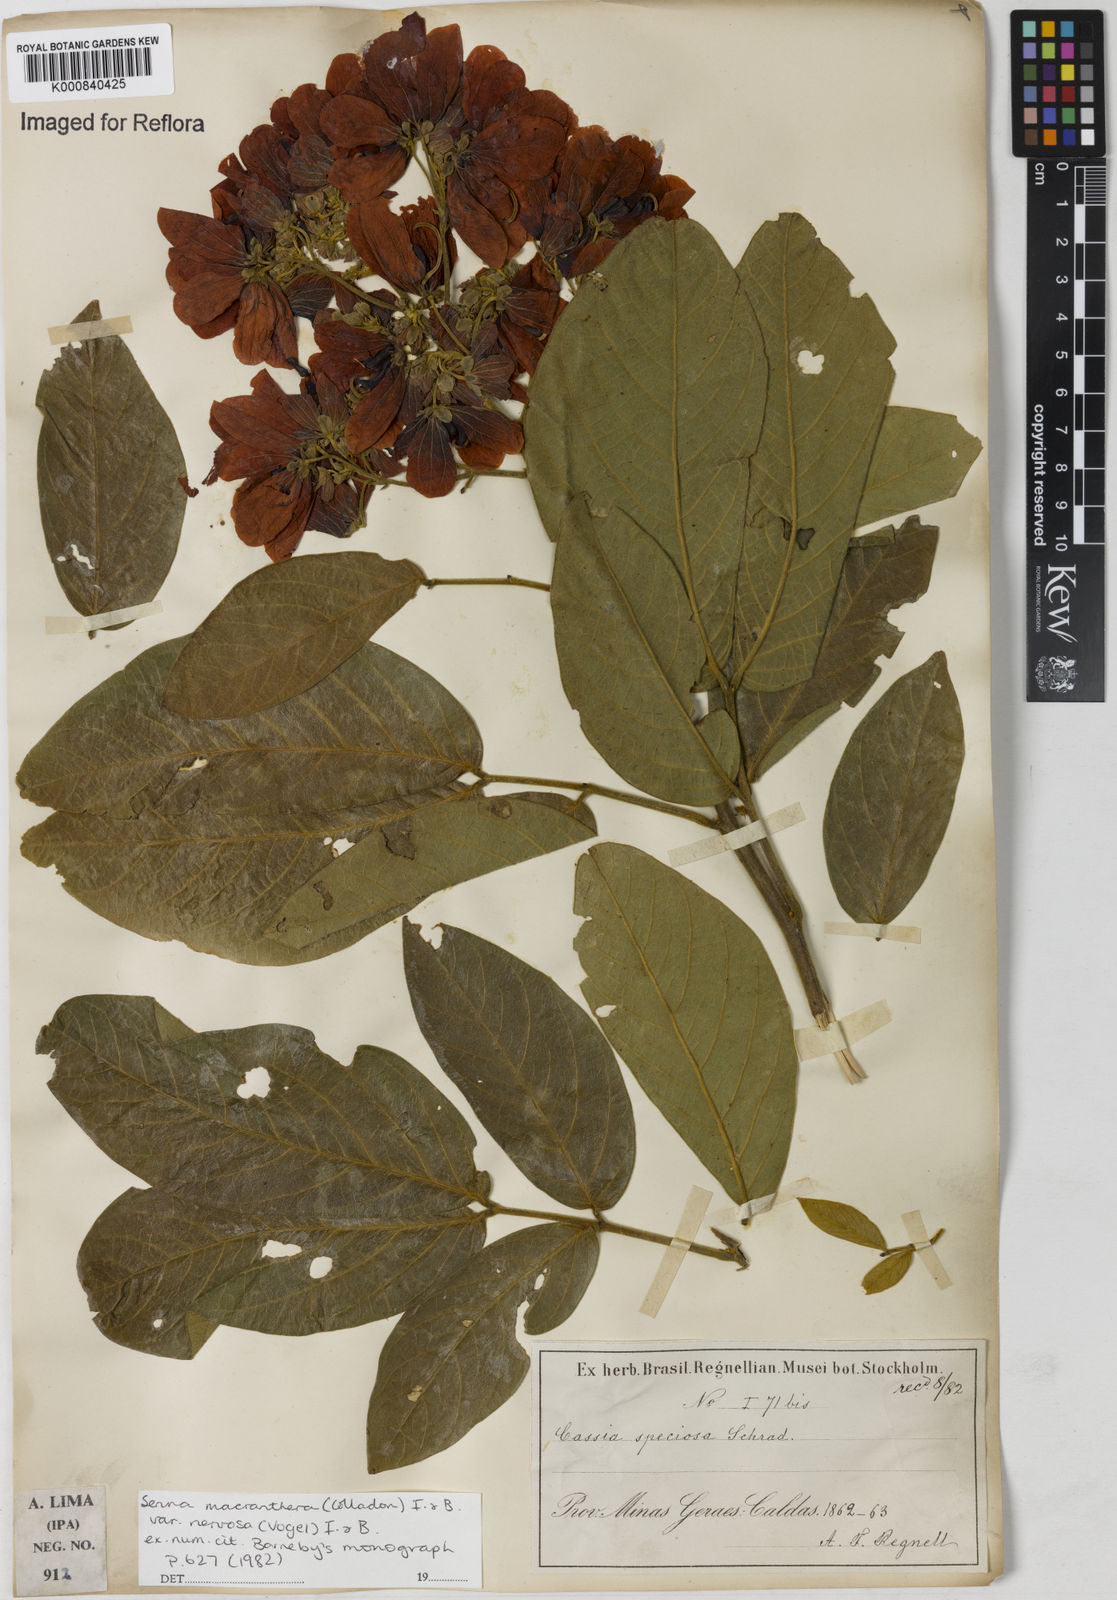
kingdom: Plantae
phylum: Tracheophyta
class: Magnoliopsida
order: Fabales
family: Fabaceae
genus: Senna
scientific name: Senna macranthera
